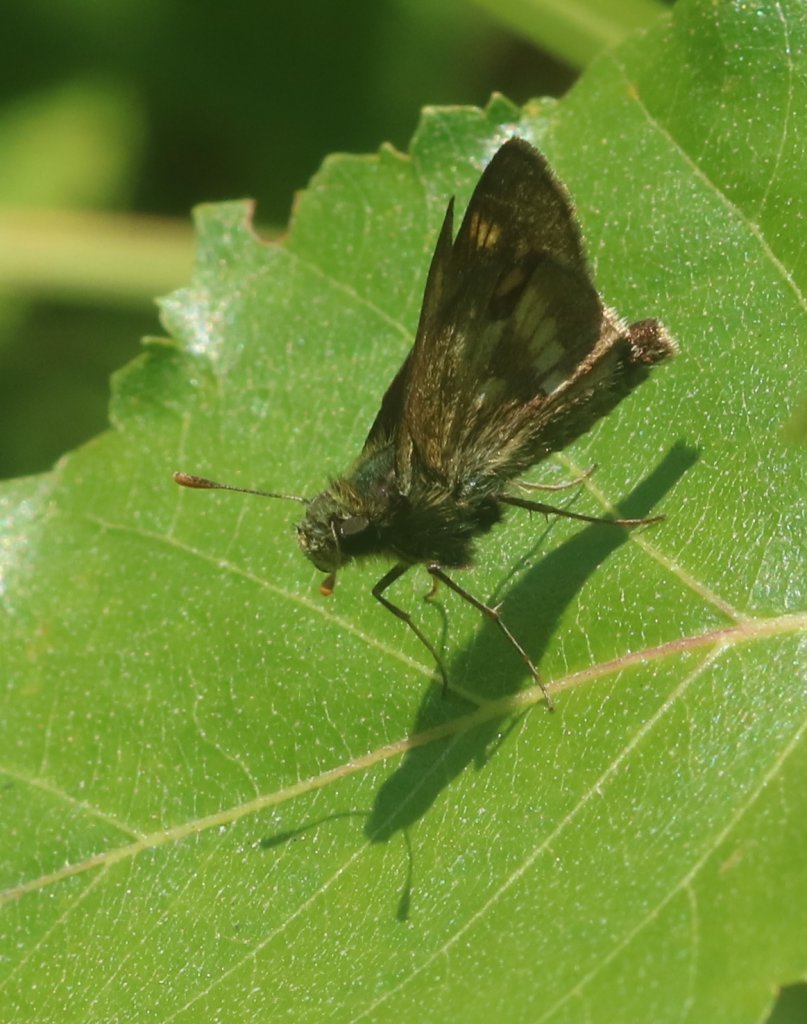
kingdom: Animalia
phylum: Arthropoda
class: Insecta
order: Lepidoptera
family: Hesperiidae
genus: Polites
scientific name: Polites
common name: Long Dash Skipper
